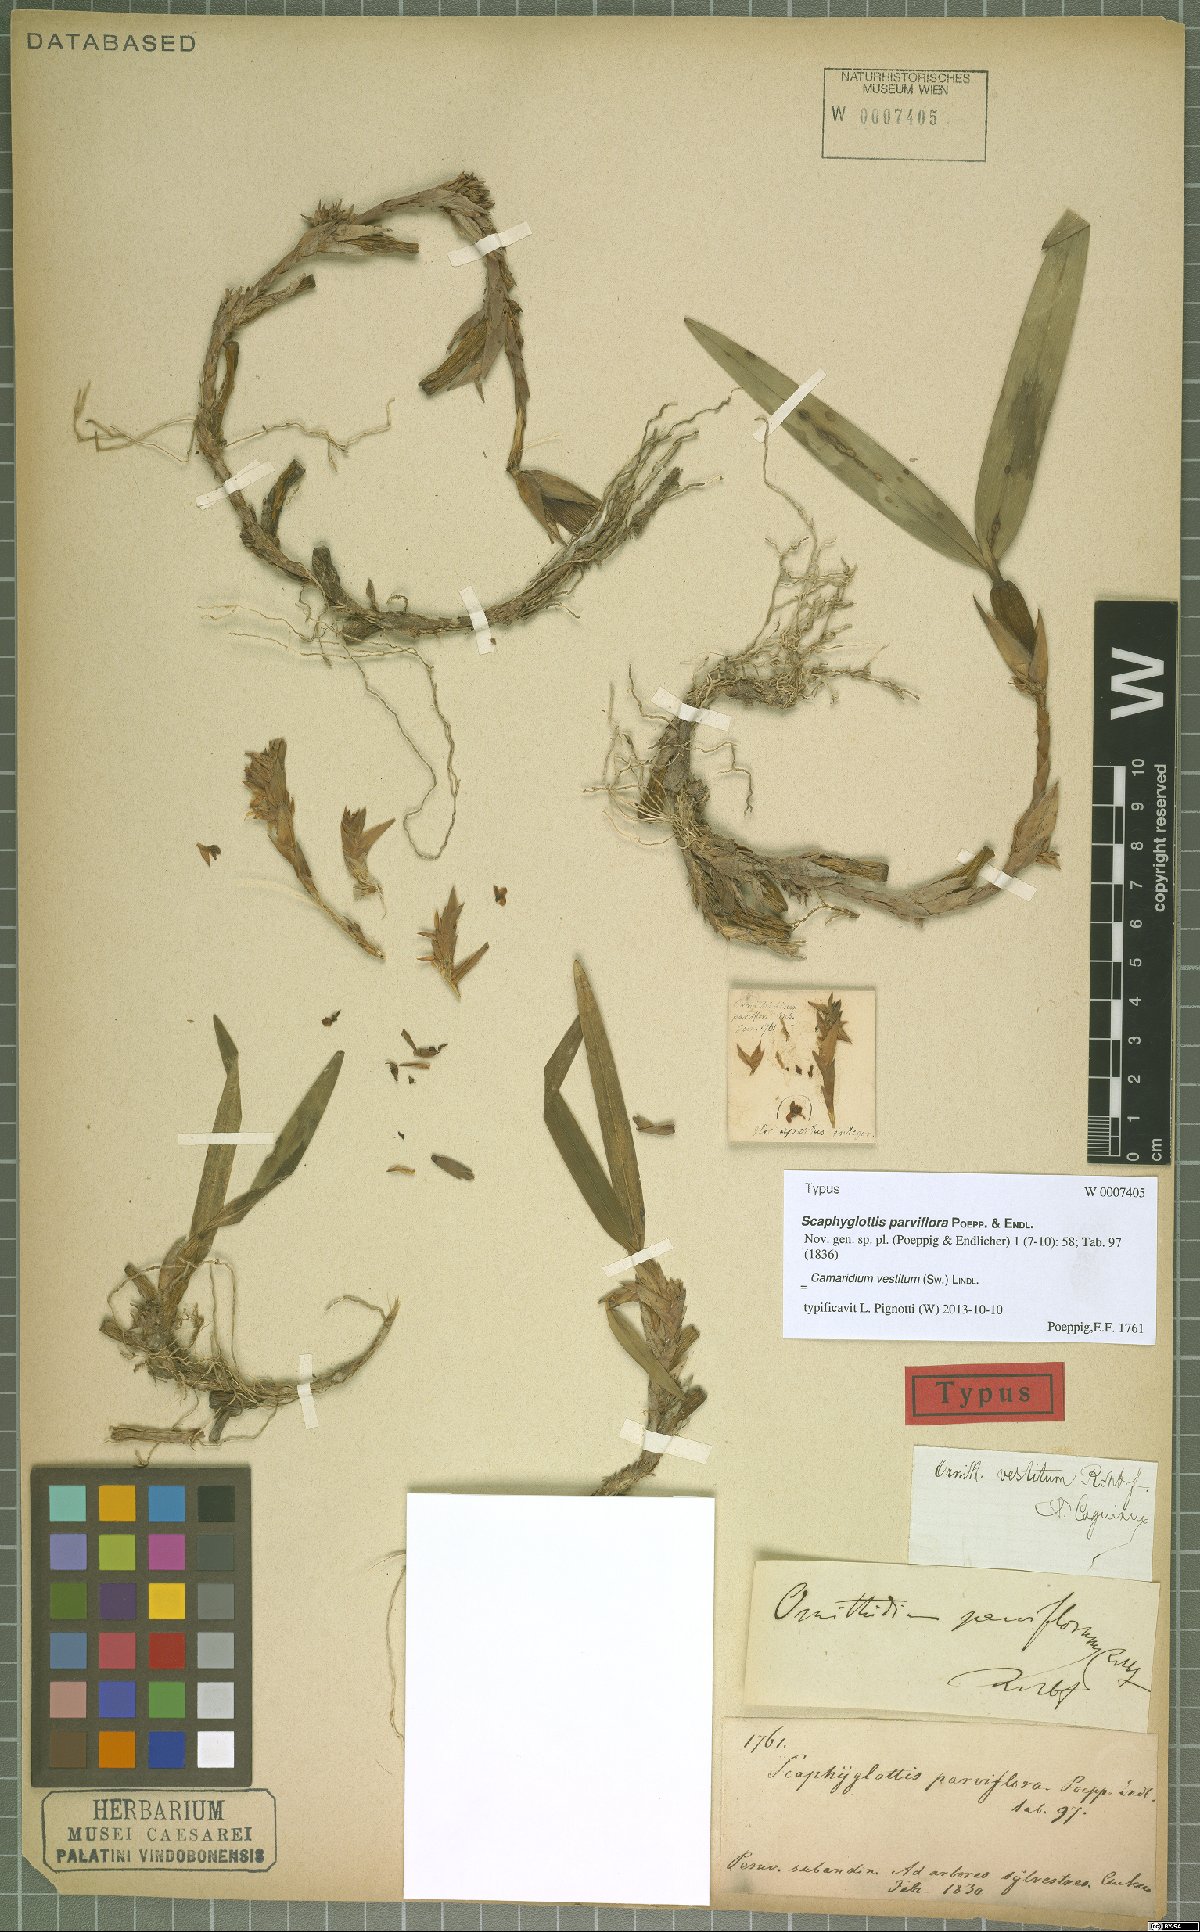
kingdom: Plantae
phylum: Tracheophyta
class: Liliopsida
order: Asparagales
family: Orchidaceae
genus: Maxillaria
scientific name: Maxillaria parviflora
